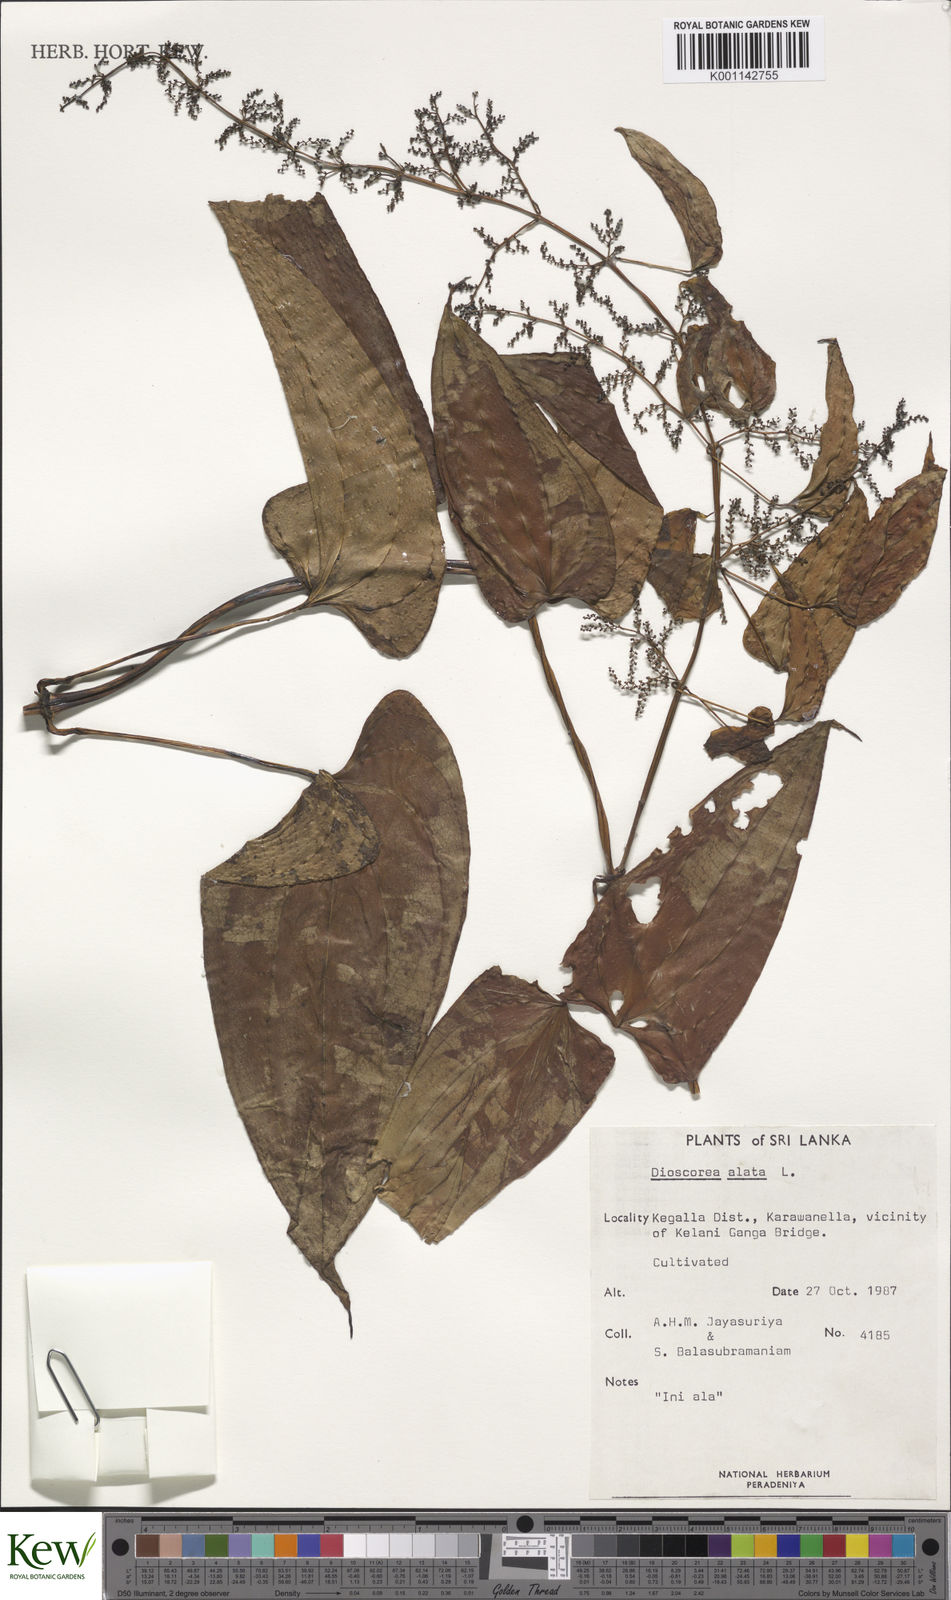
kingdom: Plantae
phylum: Tracheophyta
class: Liliopsida
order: Dioscoreales
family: Dioscoreaceae
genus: Dioscorea
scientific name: Dioscorea alata
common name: Water yam
